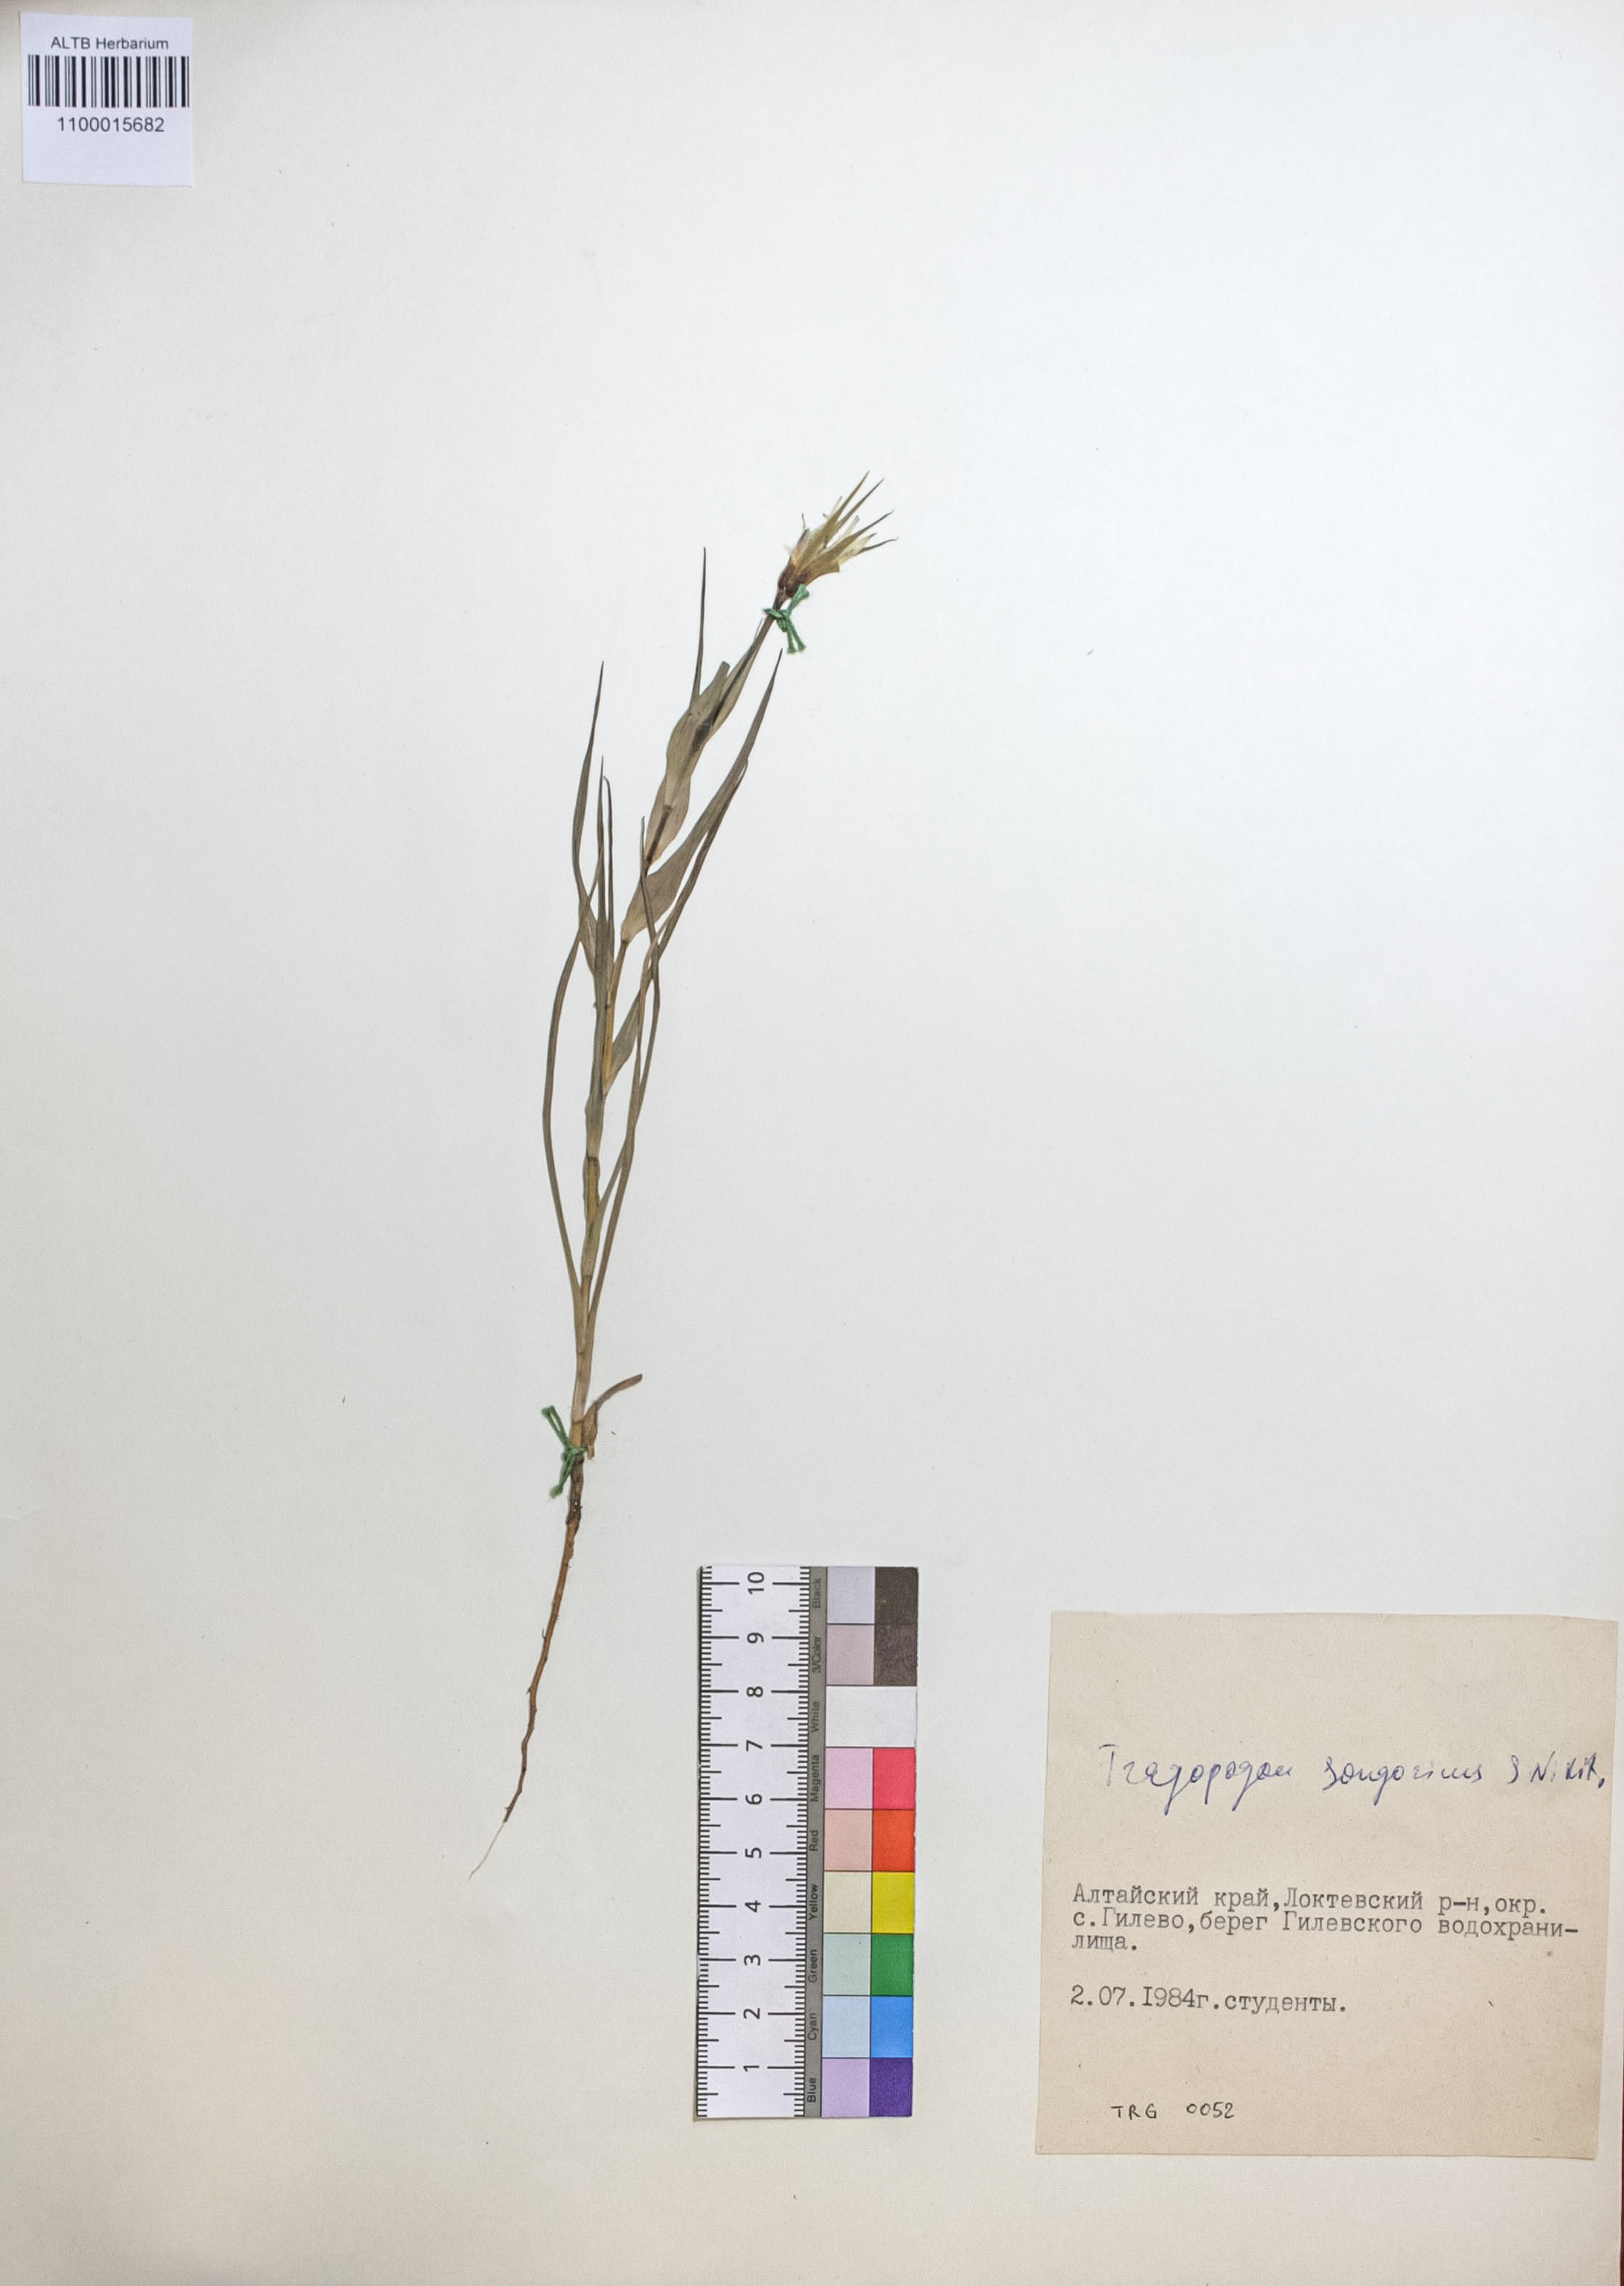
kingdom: Plantae
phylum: Tracheophyta
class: Magnoliopsida
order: Asterales
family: Asteraceae
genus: Tragopogon
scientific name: Tragopogon songoricus
